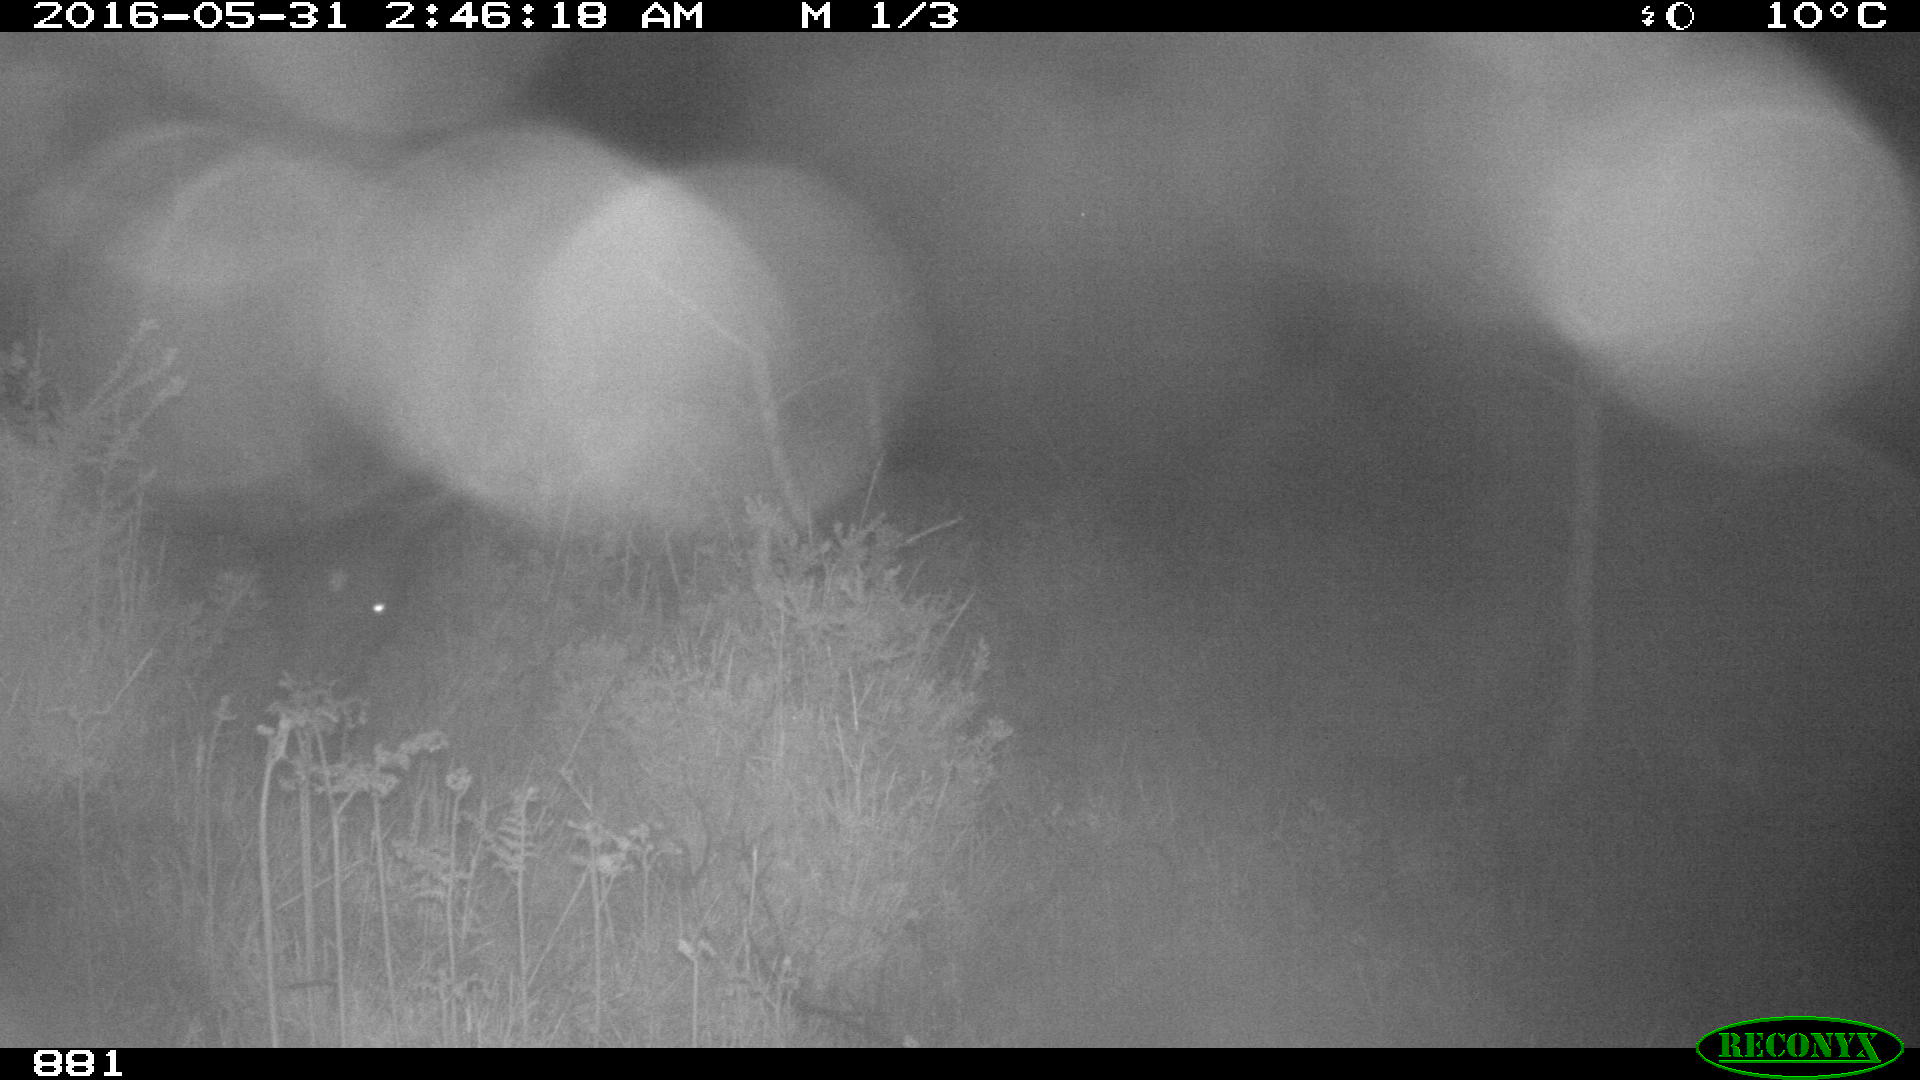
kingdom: Animalia
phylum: Chordata
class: Mammalia
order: Perissodactyla
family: Equidae
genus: Equus
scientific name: Equus caballus
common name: Horse
